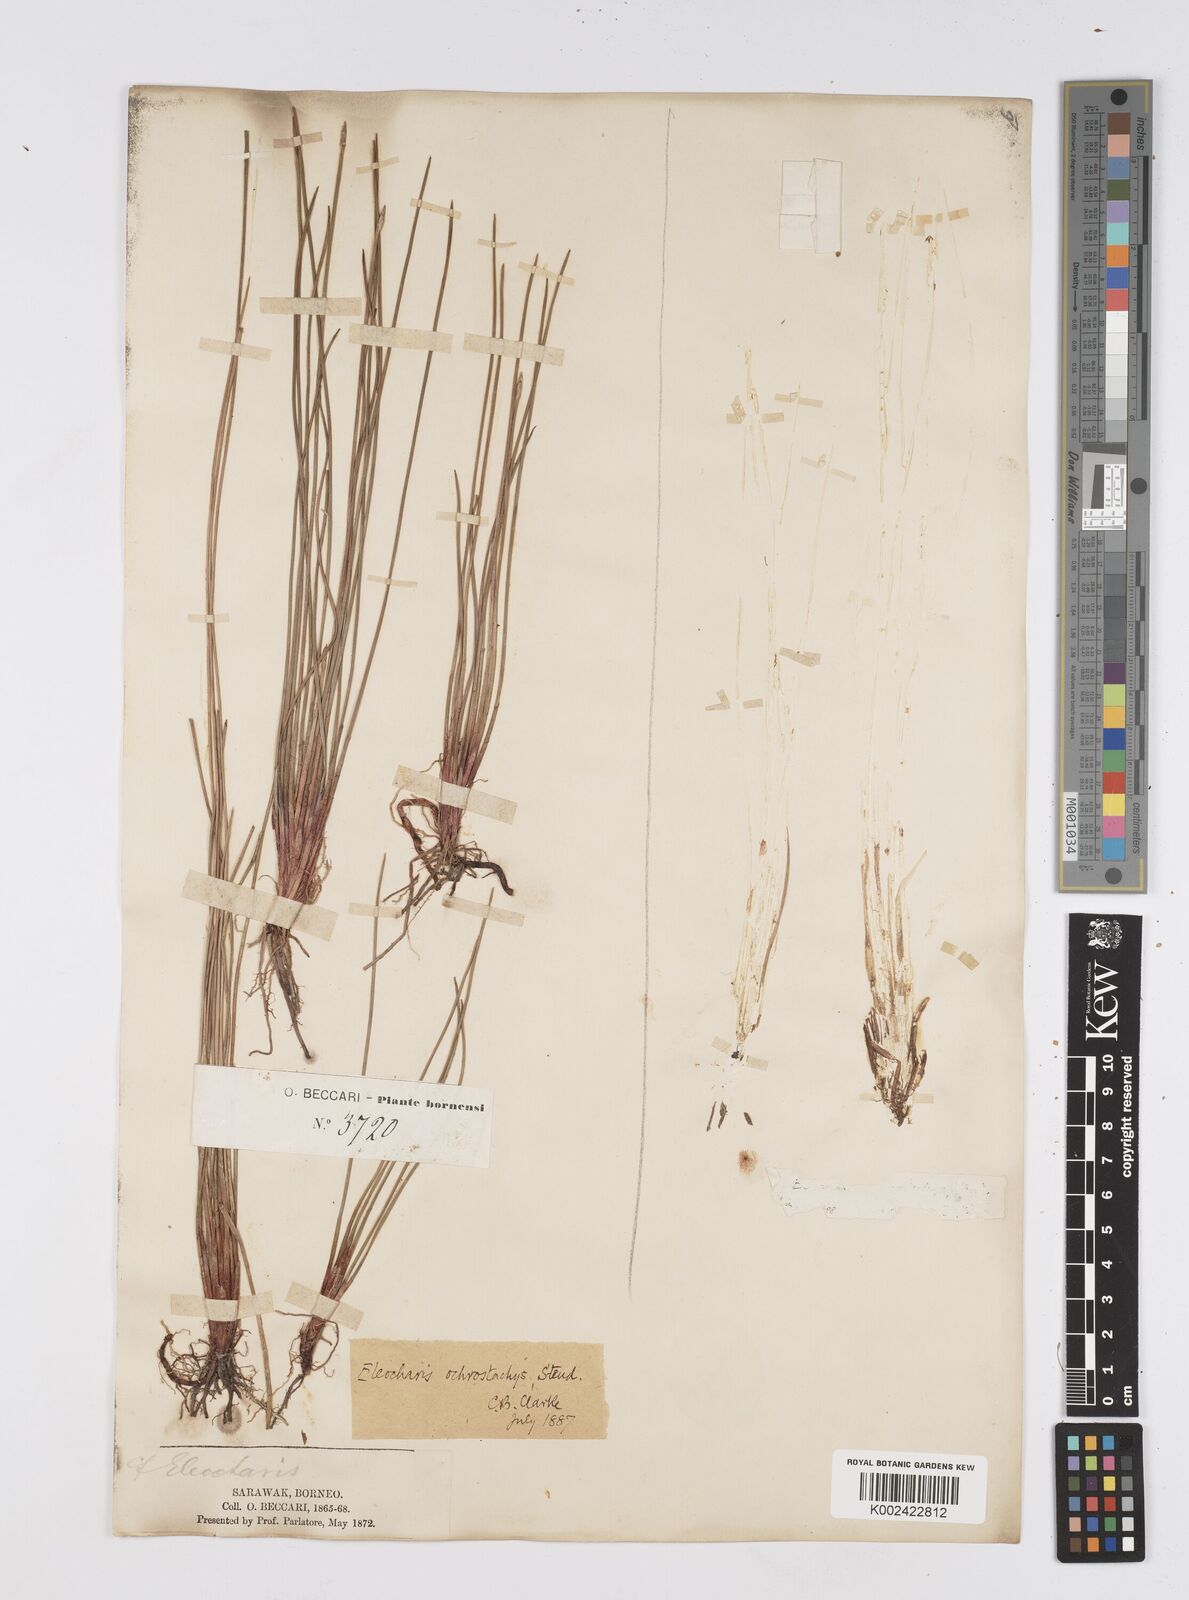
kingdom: Plantae
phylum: Tracheophyta
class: Liliopsida
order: Poales
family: Cyperaceae
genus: Eleocharis
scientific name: Eleocharis ochrostachys
